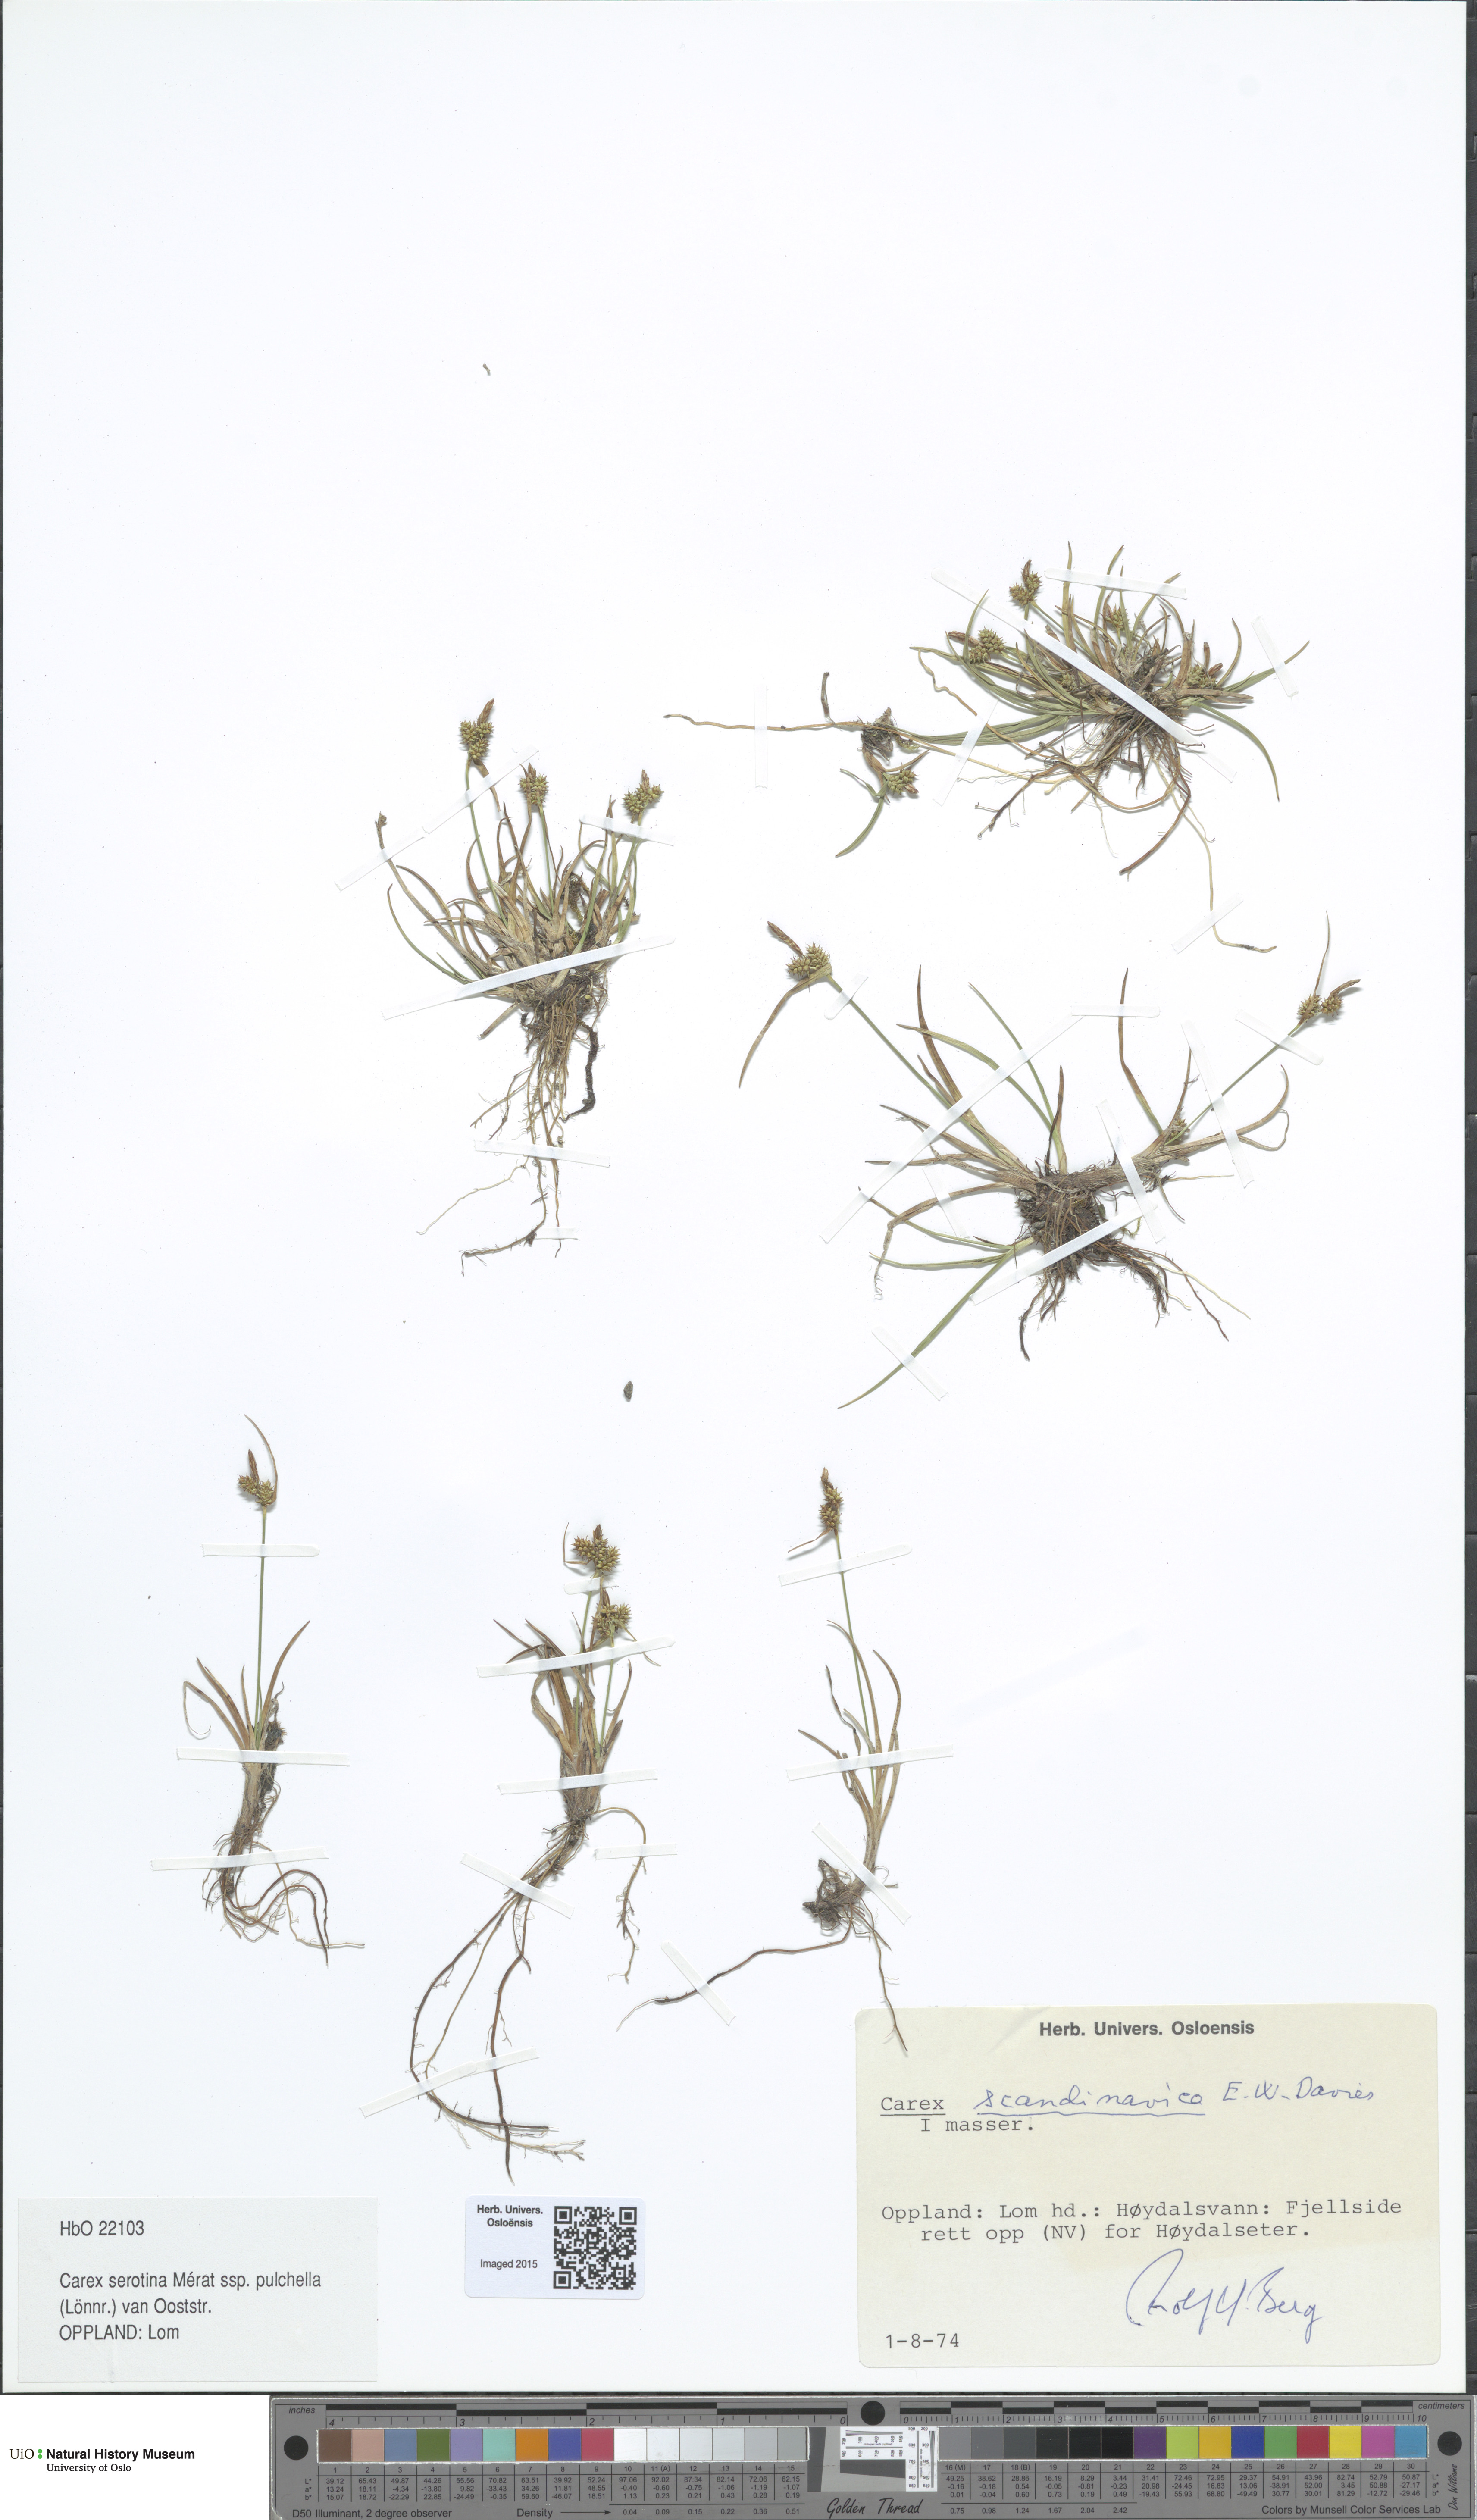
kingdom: Plantae
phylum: Tracheophyta
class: Liliopsida
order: Poales
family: Cyperaceae
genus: Carex
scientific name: Carex oederi
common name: Common & small-fruited yellow-sedge
